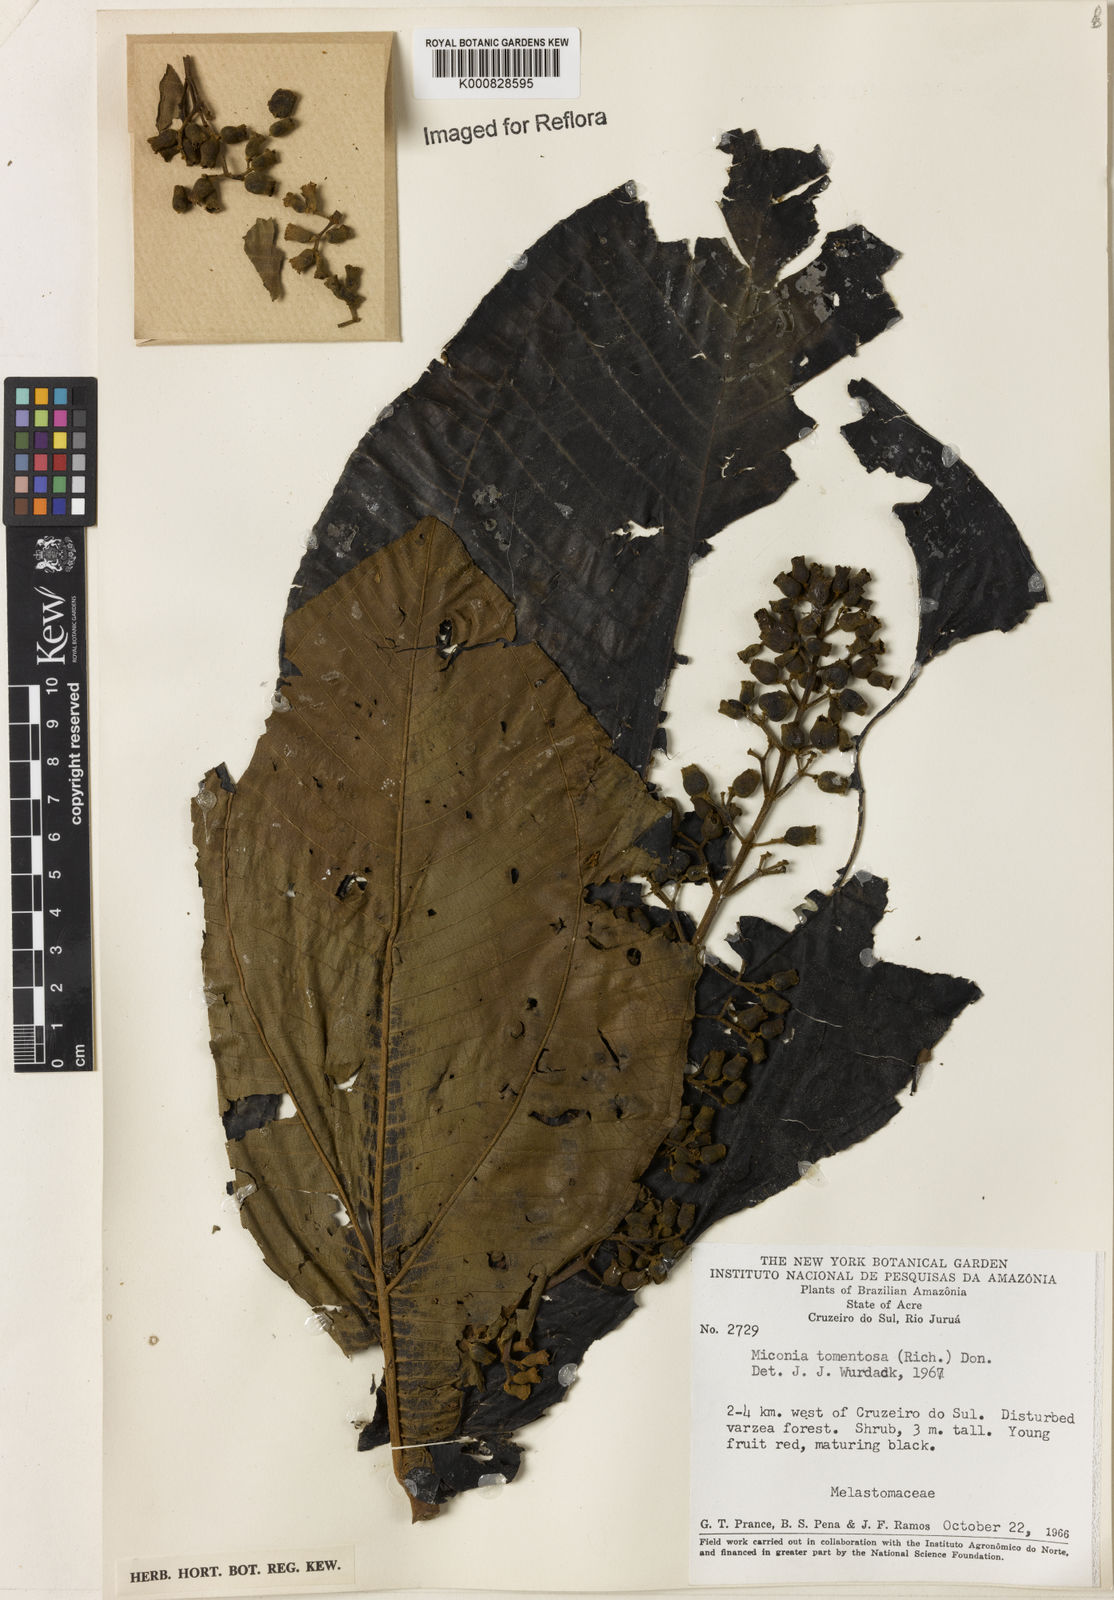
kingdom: Plantae
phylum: Tracheophyta
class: Magnoliopsida
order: Myrtales
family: Melastomataceae
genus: Miconia
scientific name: Miconia tomentosa
